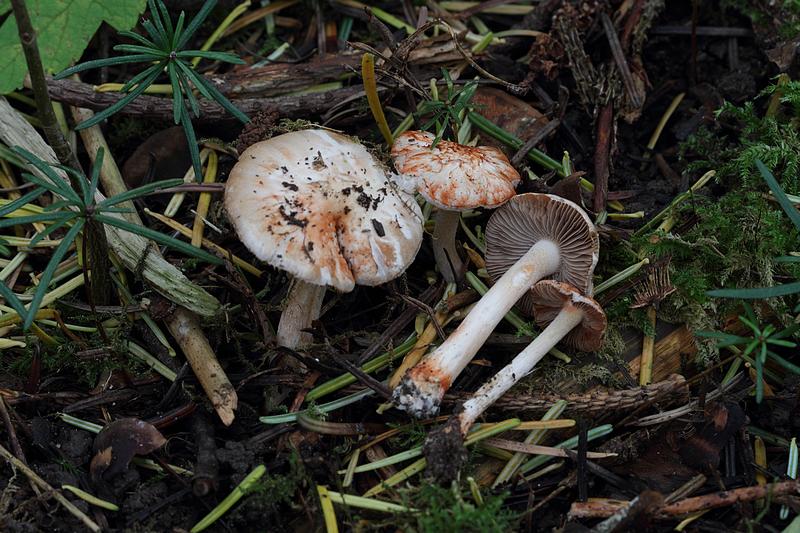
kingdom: Fungi
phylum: Basidiomycota
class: Agaricomycetes
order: Agaricales
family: Inocybaceae
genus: Inocybe
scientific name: Inocybe
